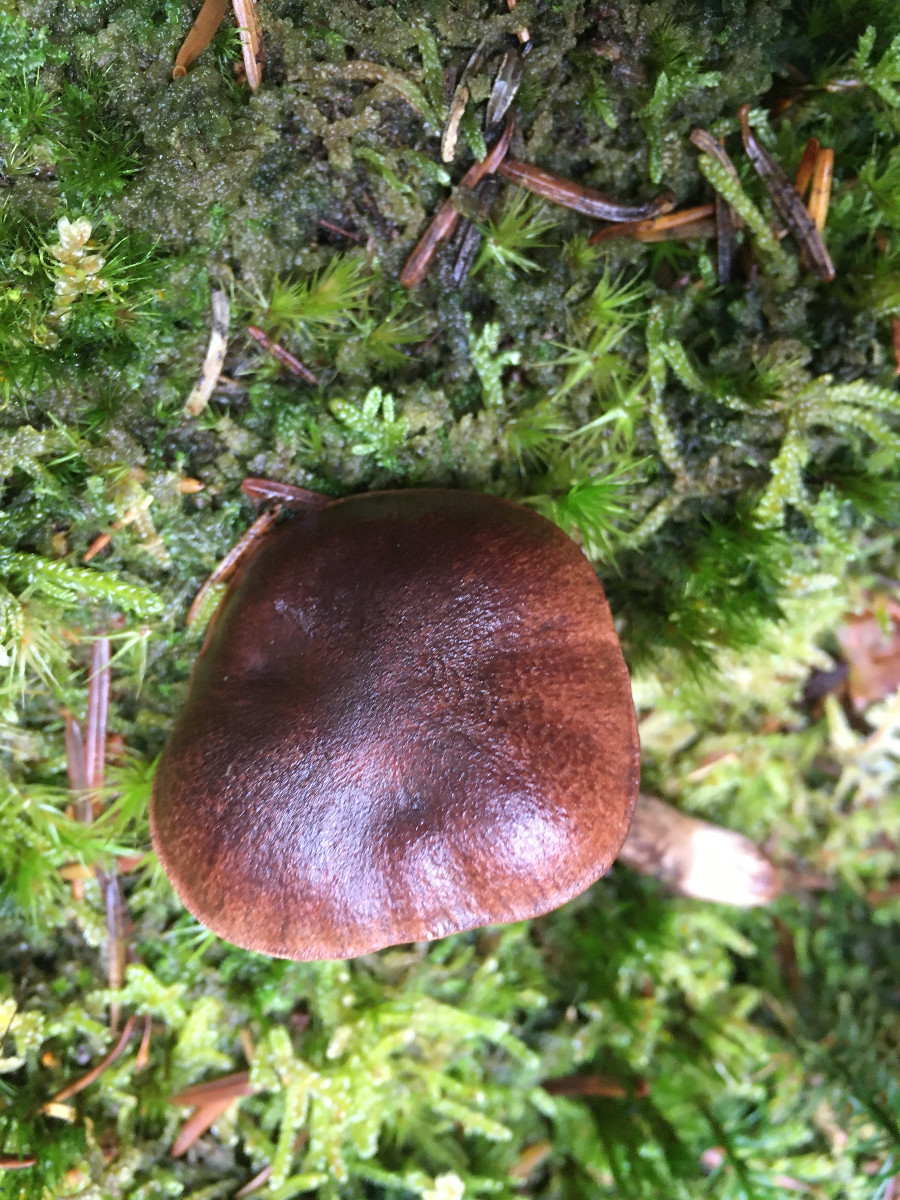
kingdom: Fungi
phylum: Basidiomycota
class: Agaricomycetes
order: Agaricales
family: Tricholomataceae
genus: Tricholoma
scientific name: Tricholoma fulvum
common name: birke-ridderhat
